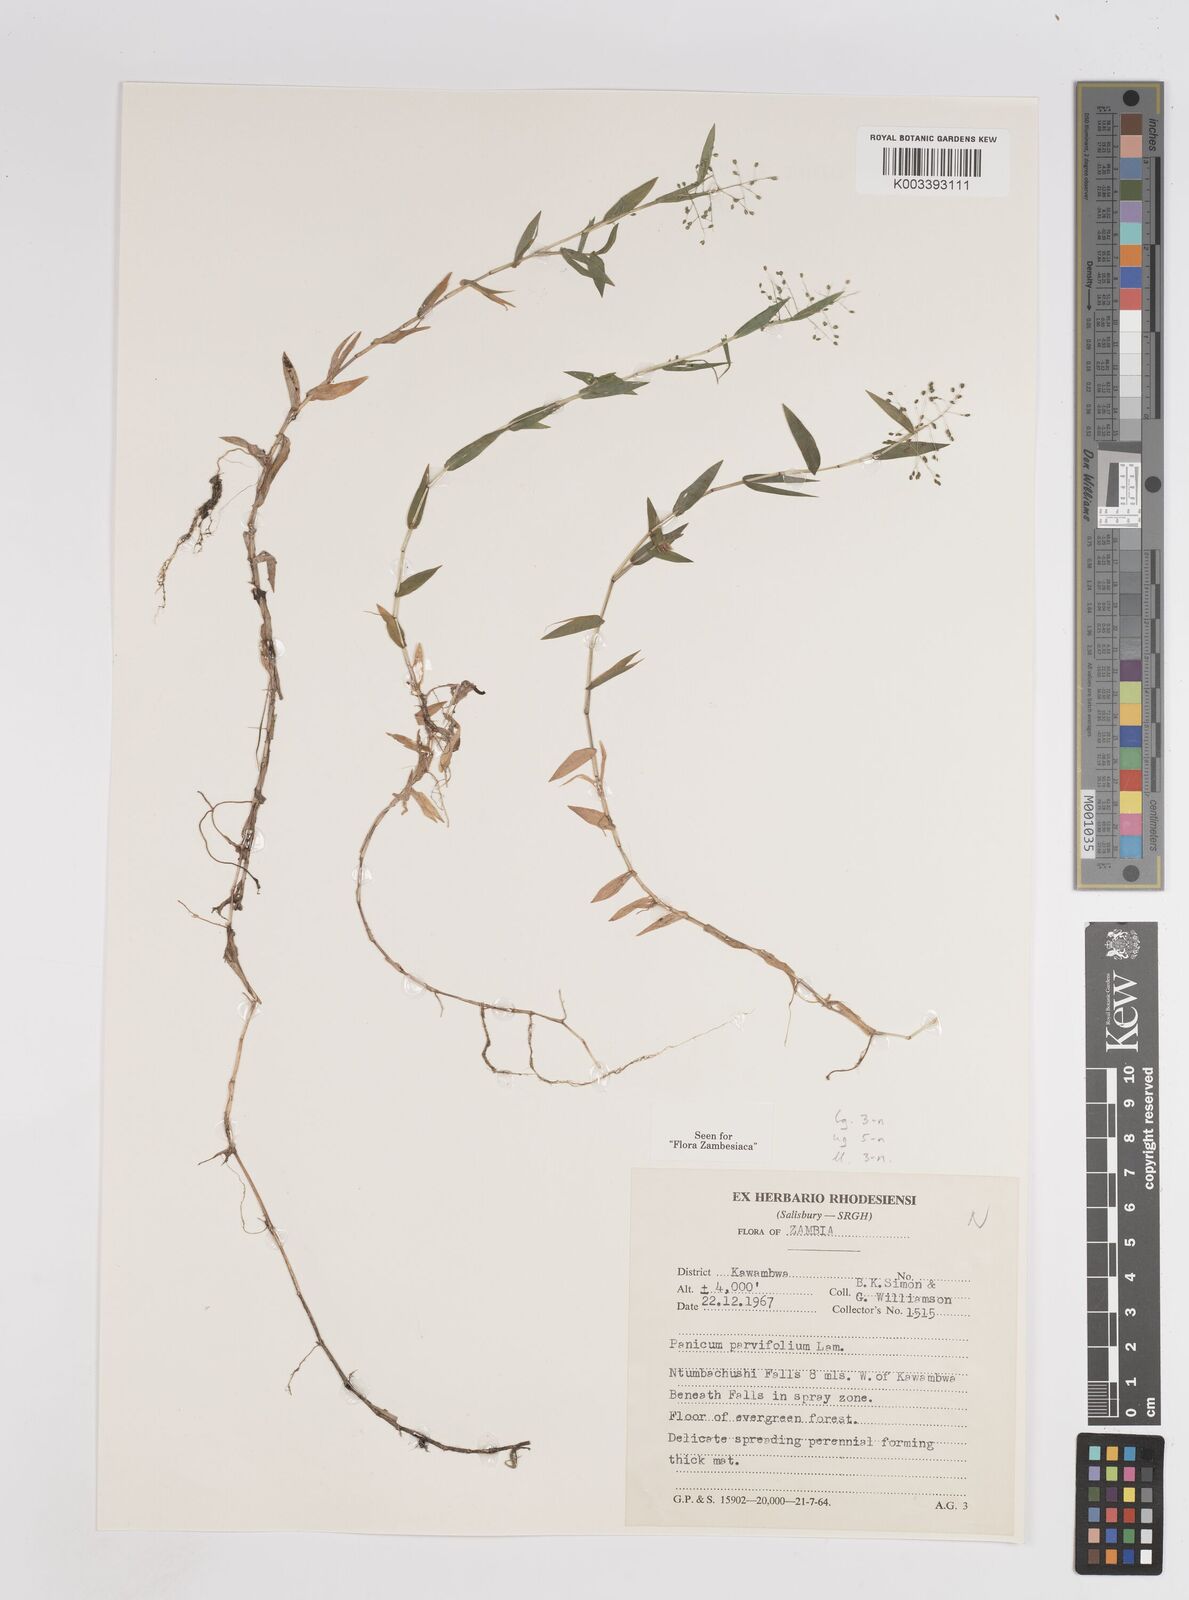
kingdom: Plantae
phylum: Tracheophyta
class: Liliopsida
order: Poales
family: Poaceae
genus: Trichanthecium
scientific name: Trichanthecium parvifolium
